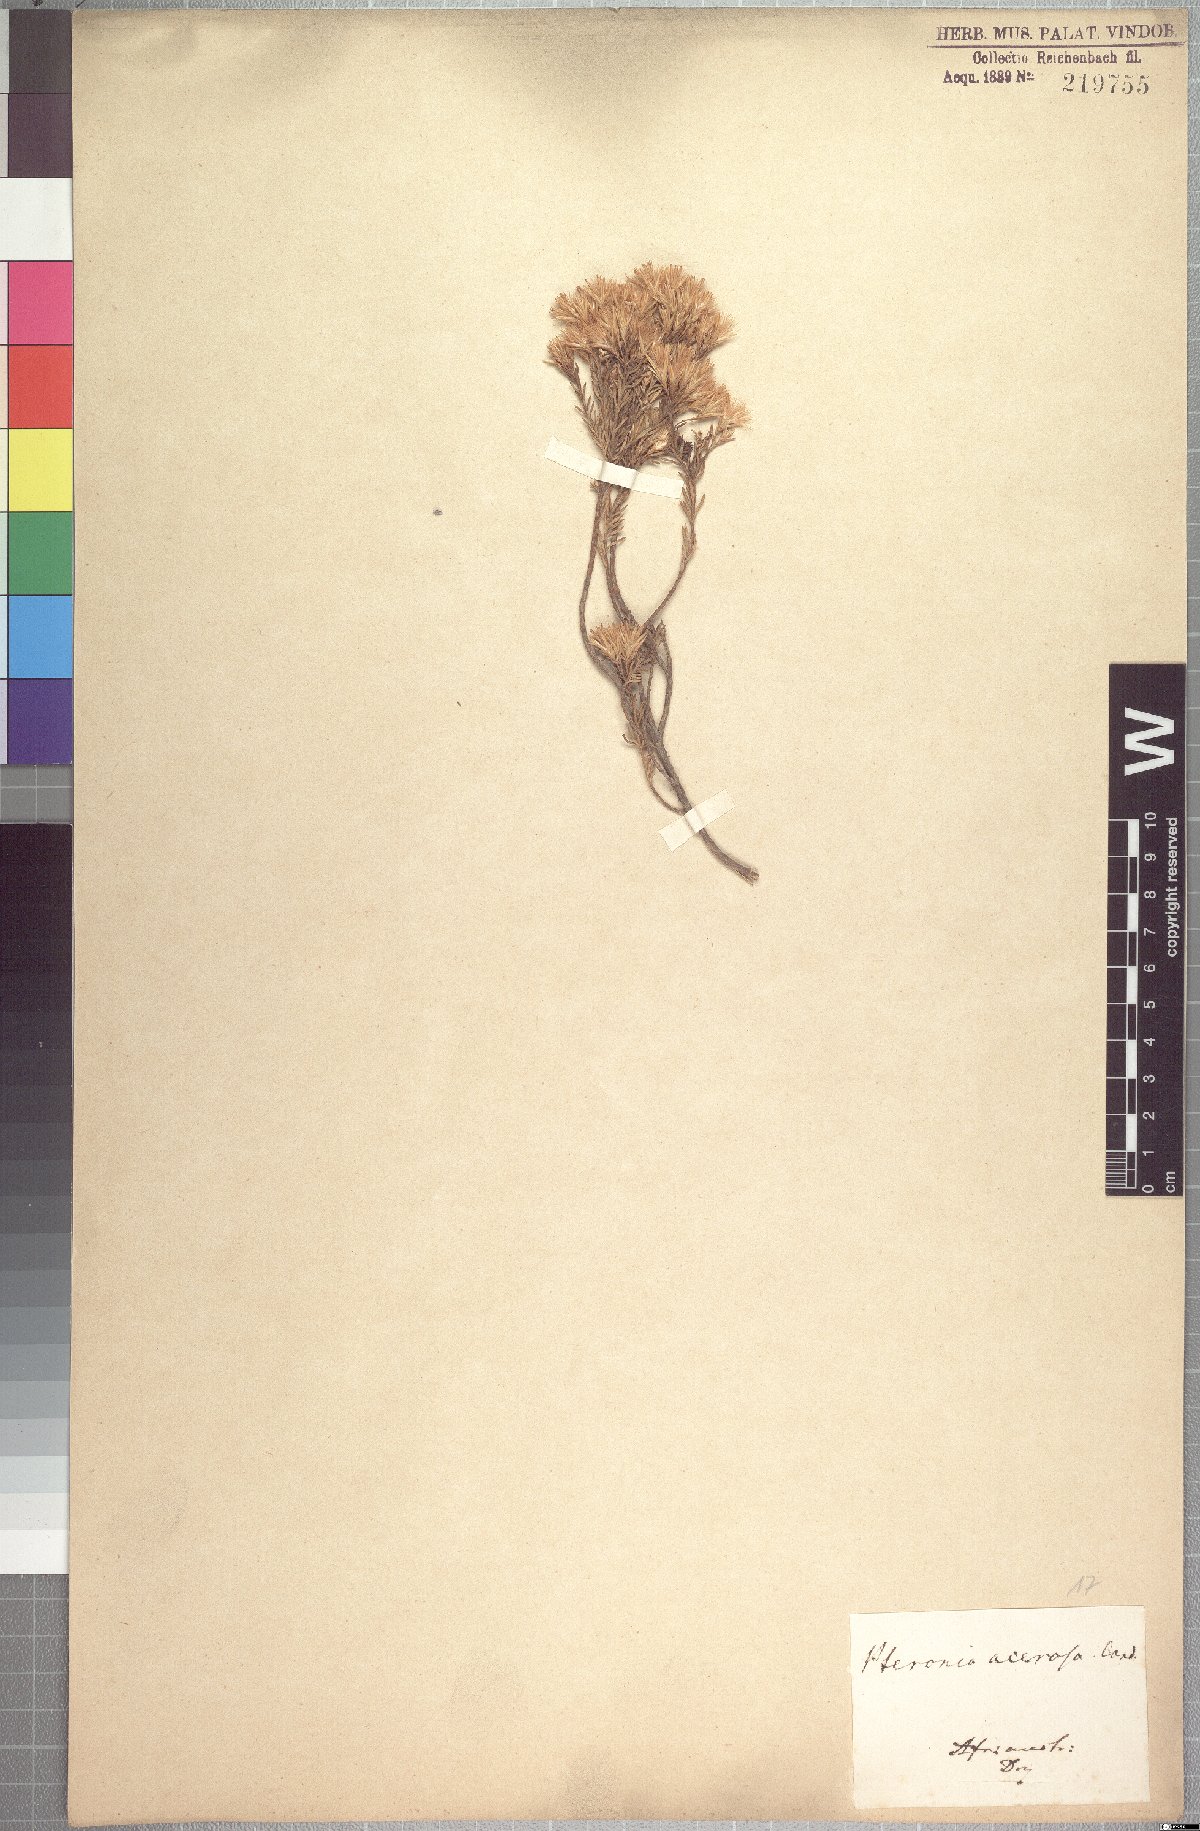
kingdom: Plantae
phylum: Tracheophyta
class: Magnoliopsida
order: Asterales
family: Asteraceae
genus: Pteronia
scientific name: Pteronia teretifolia
